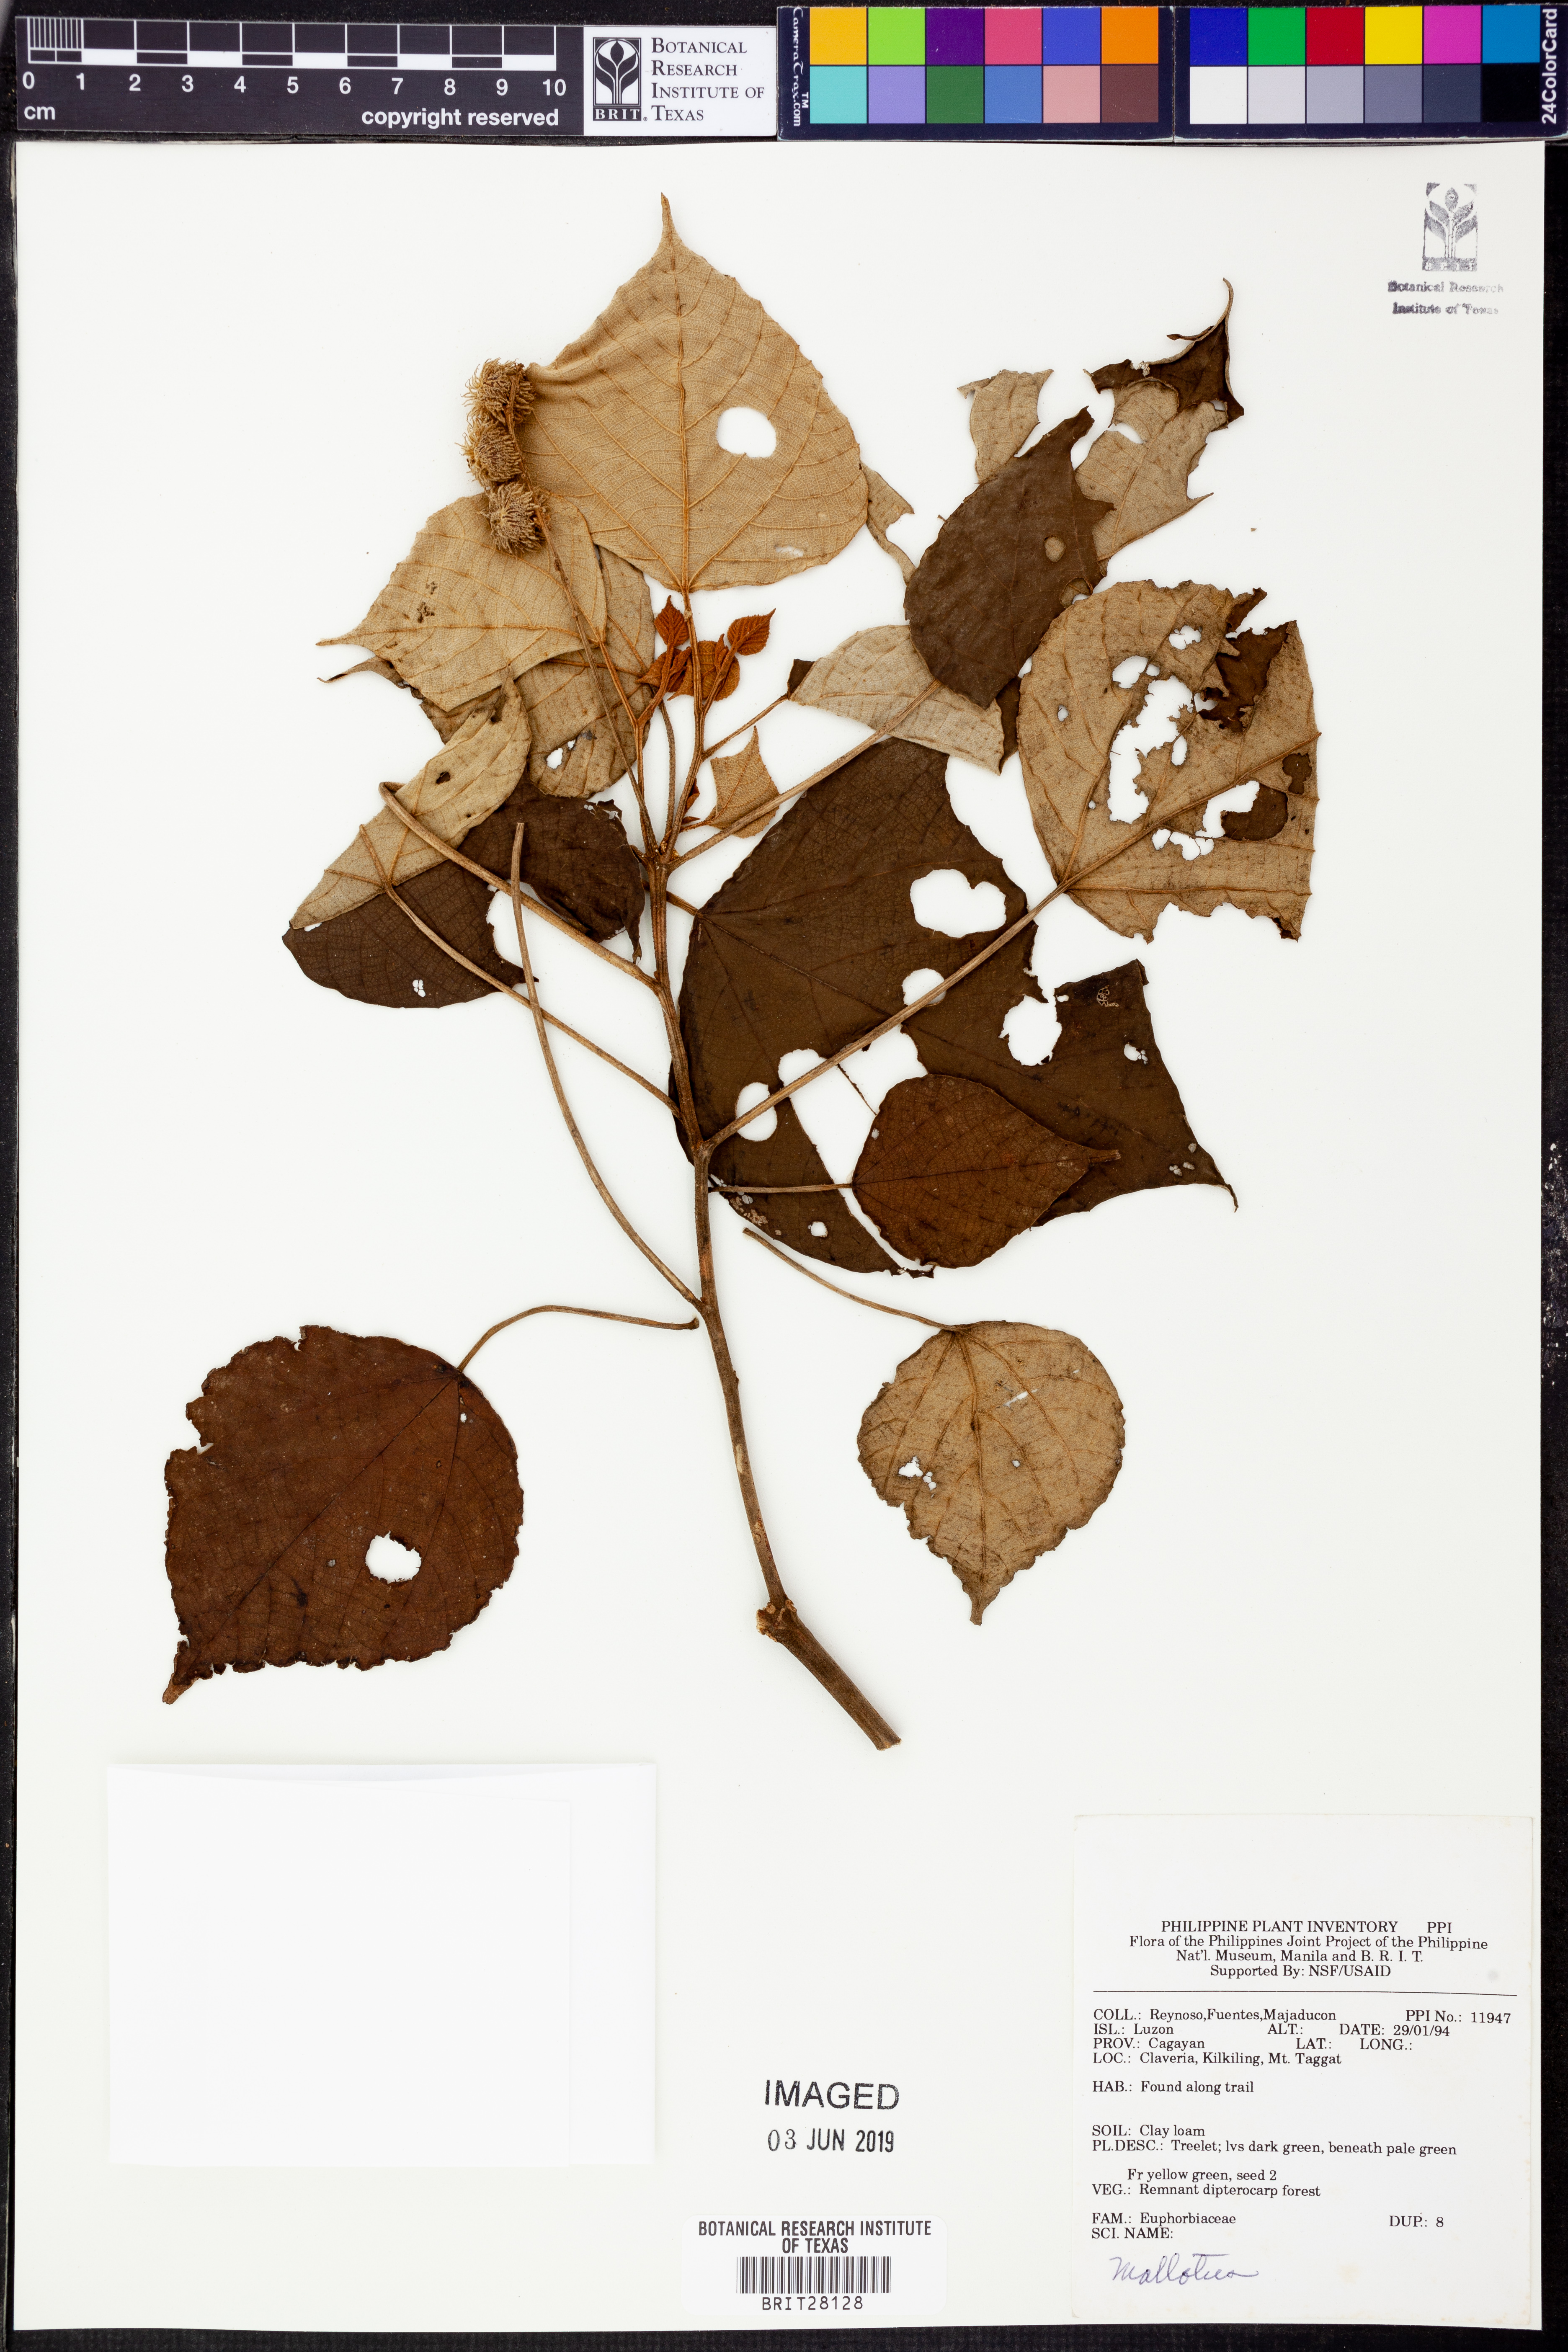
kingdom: Plantae
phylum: Tracheophyta
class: Magnoliopsida
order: Malpighiales
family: Euphorbiaceae
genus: Mallotus
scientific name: Mallotus
